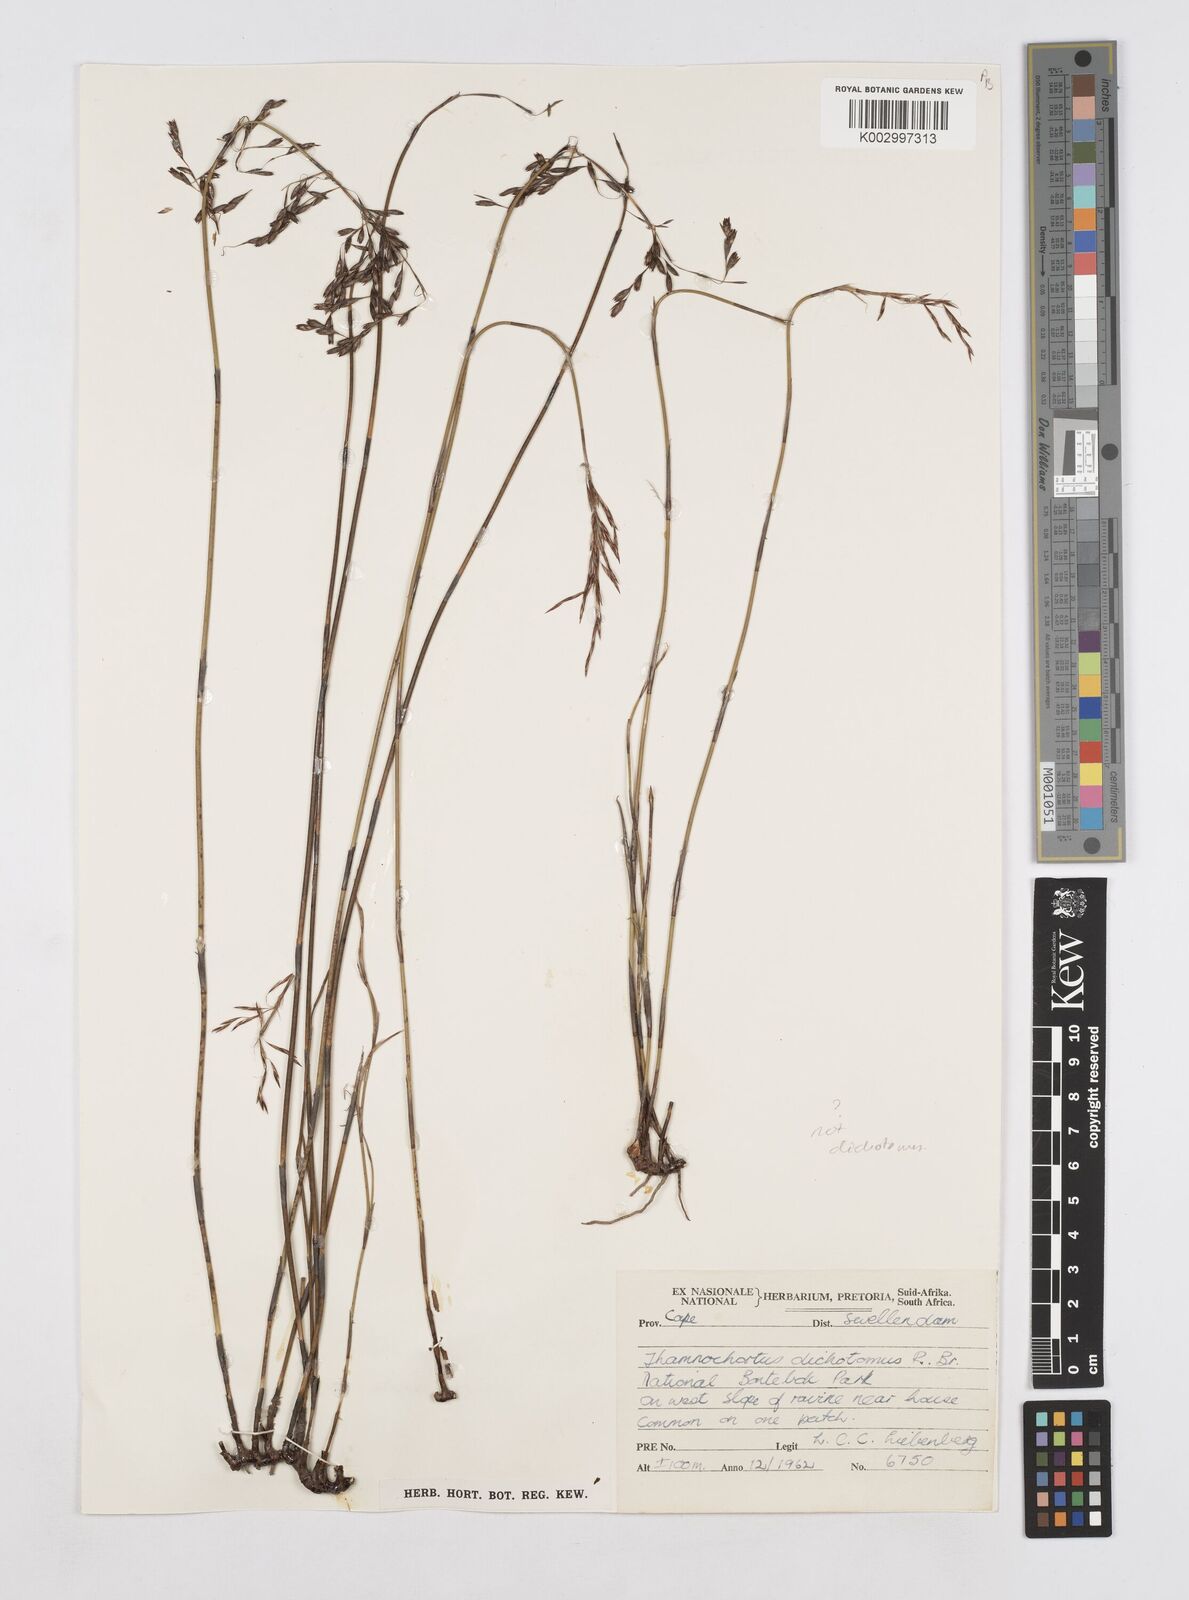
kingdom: Plantae
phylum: Tracheophyta
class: Liliopsida
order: Poales
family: Restionaceae
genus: Thamnochortus
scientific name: Thamnochortus
